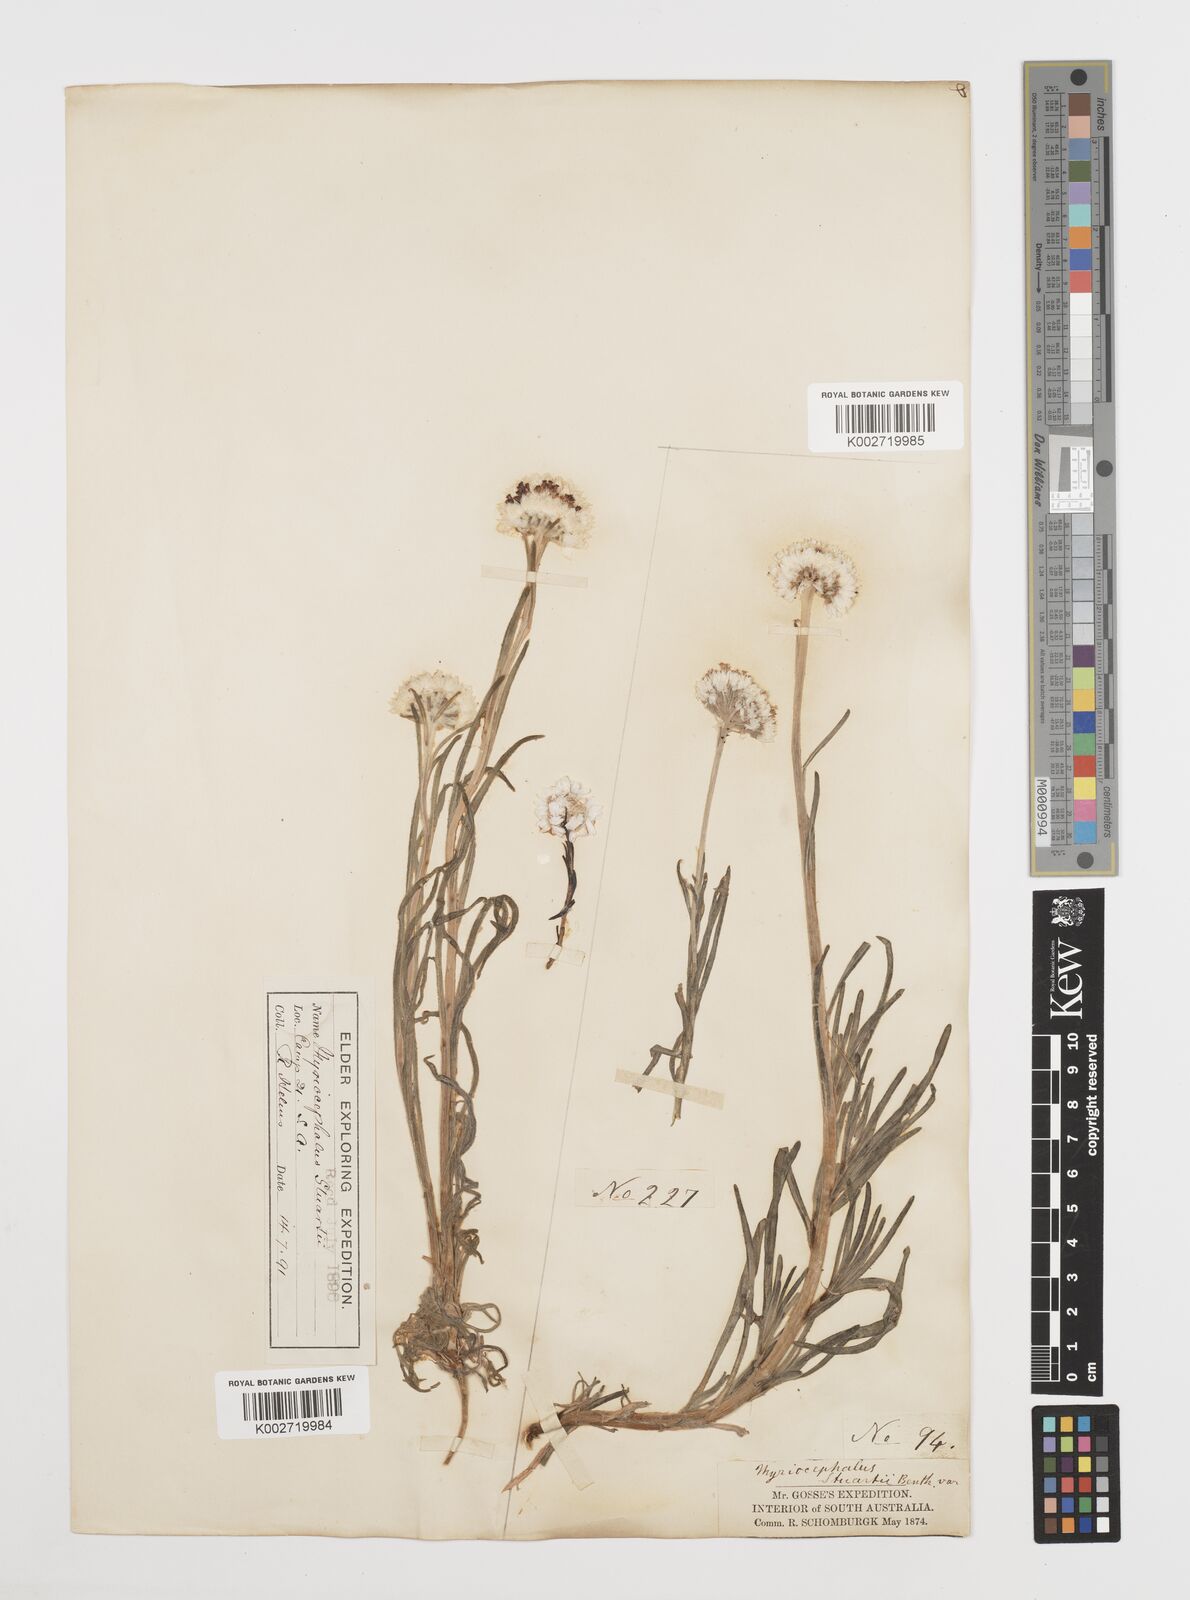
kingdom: Plantae
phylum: Tracheophyta
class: Magnoliopsida
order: Asterales
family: Asteraceae
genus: Polycalymma
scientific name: Polycalymma stuartii
